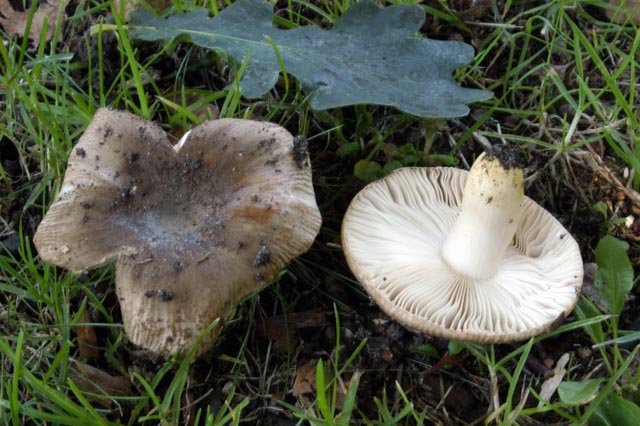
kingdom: Fungi
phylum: Basidiomycota
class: Agaricomycetes
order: Russulales
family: Russulaceae
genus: Russula
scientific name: Russula insignis
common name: gulfodet kam-skørhat
